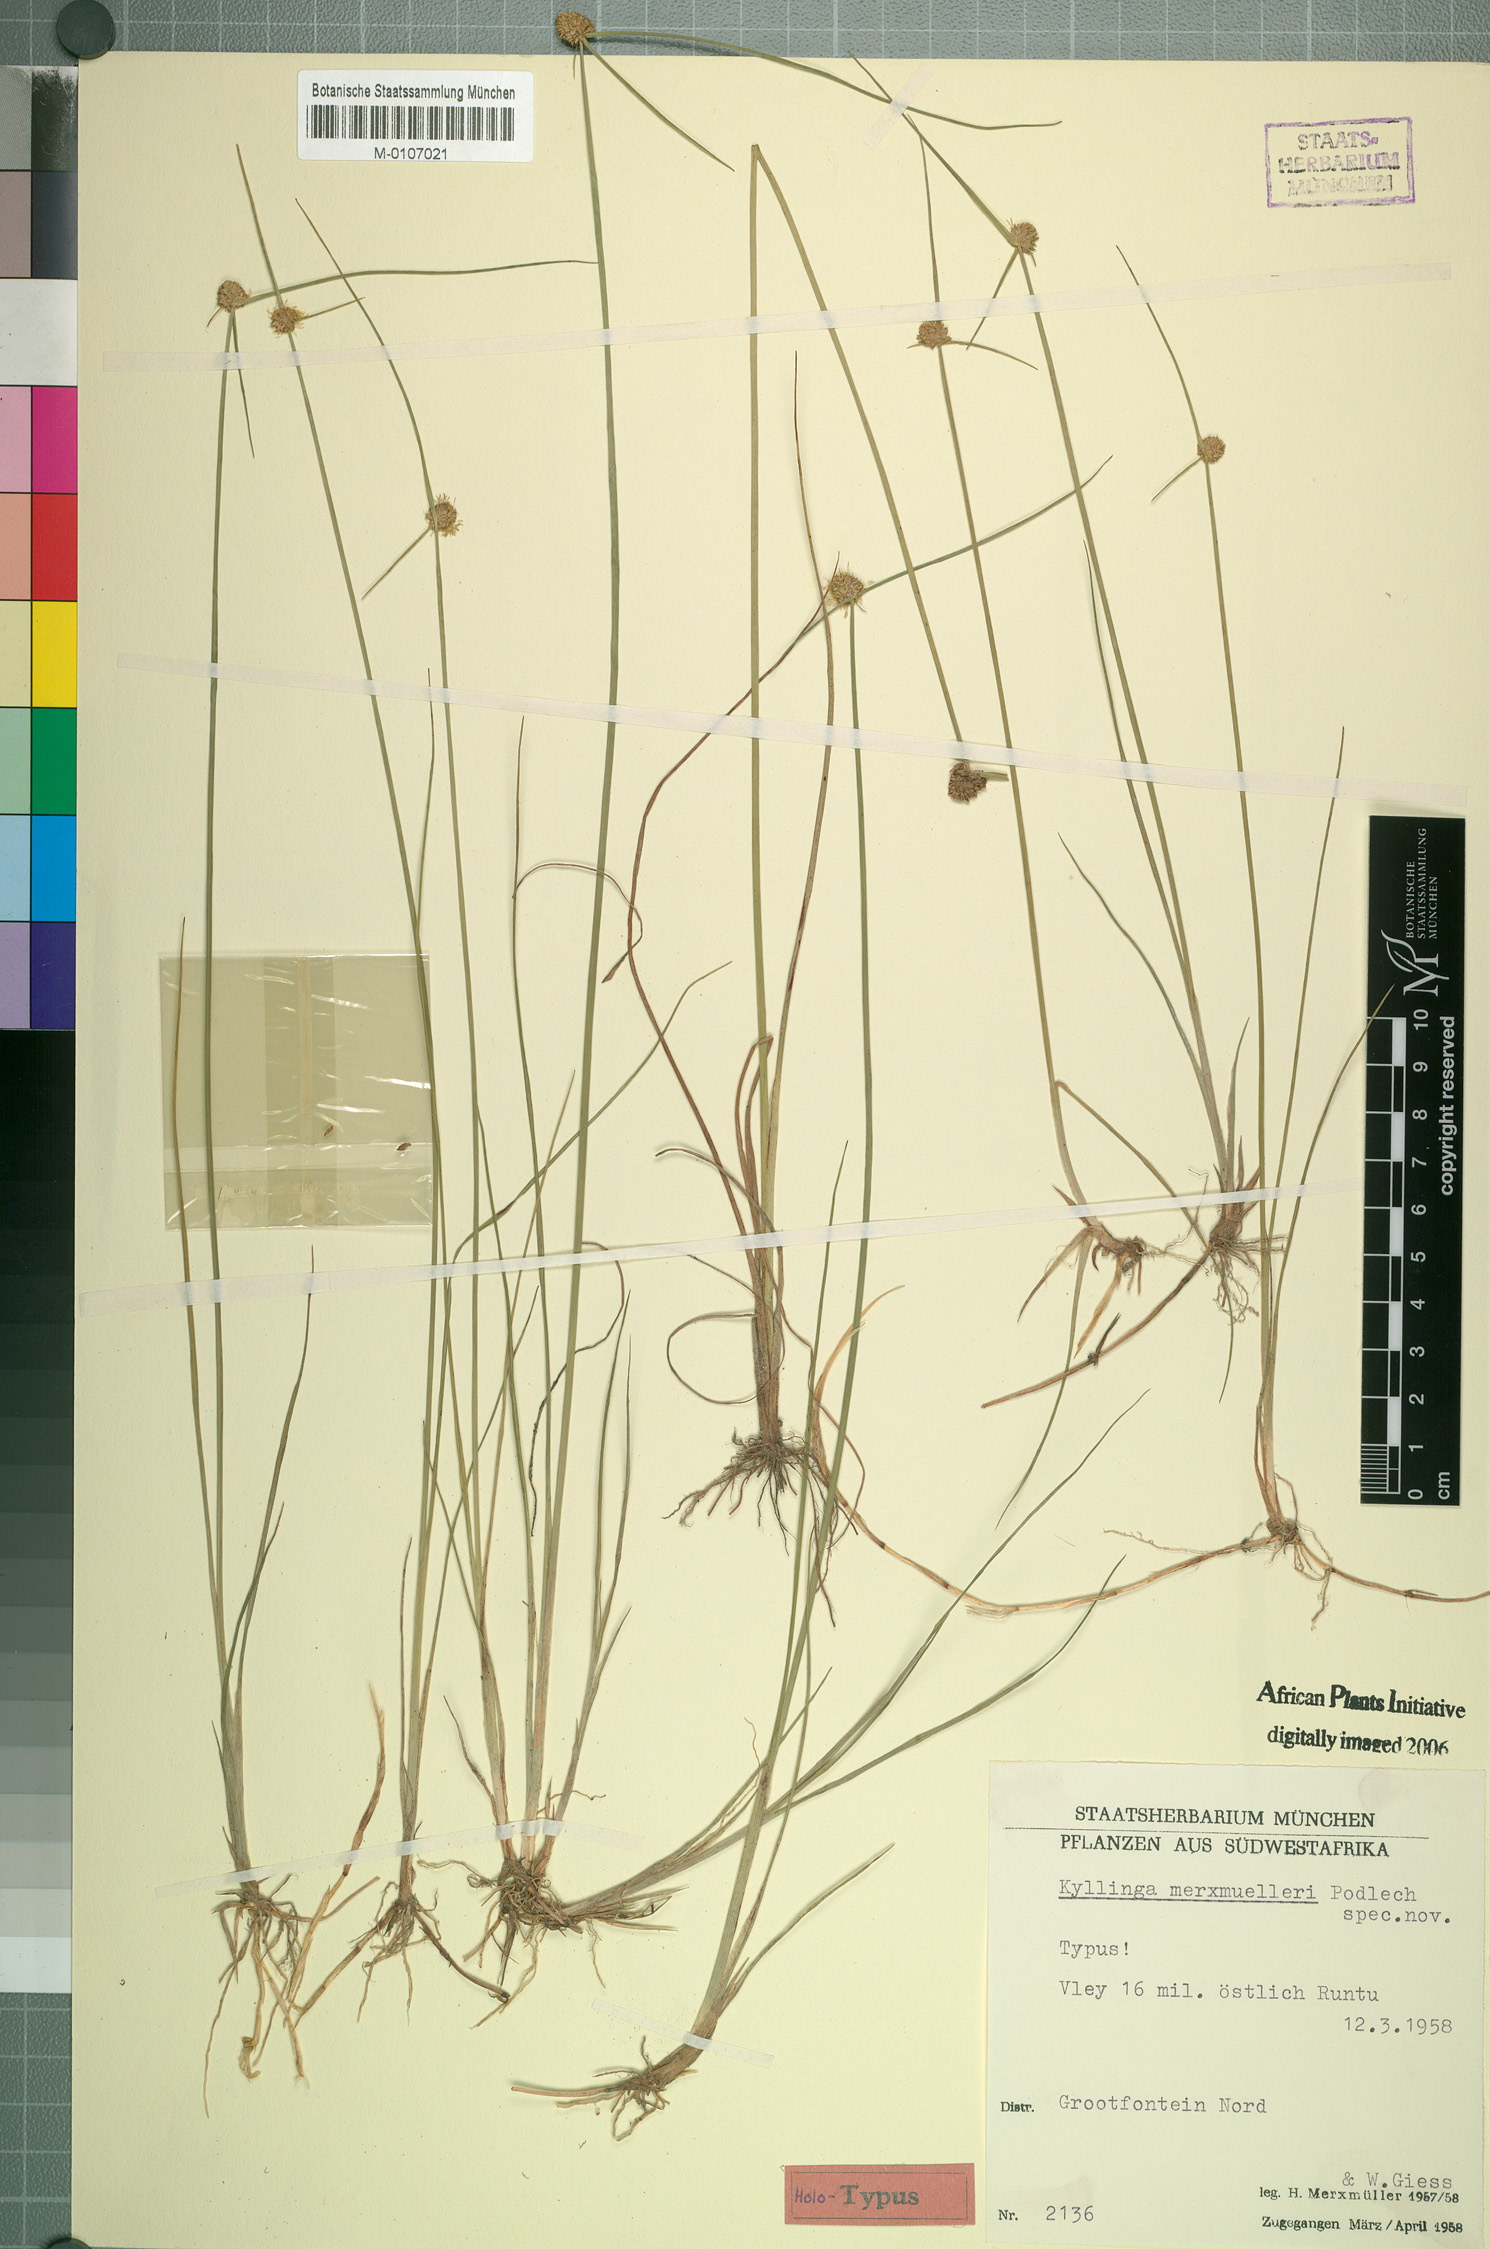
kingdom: Plantae
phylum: Tracheophyta
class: Liliopsida
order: Poales
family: Cyperaceae
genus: Cyperus
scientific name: Cyperus albiceps
